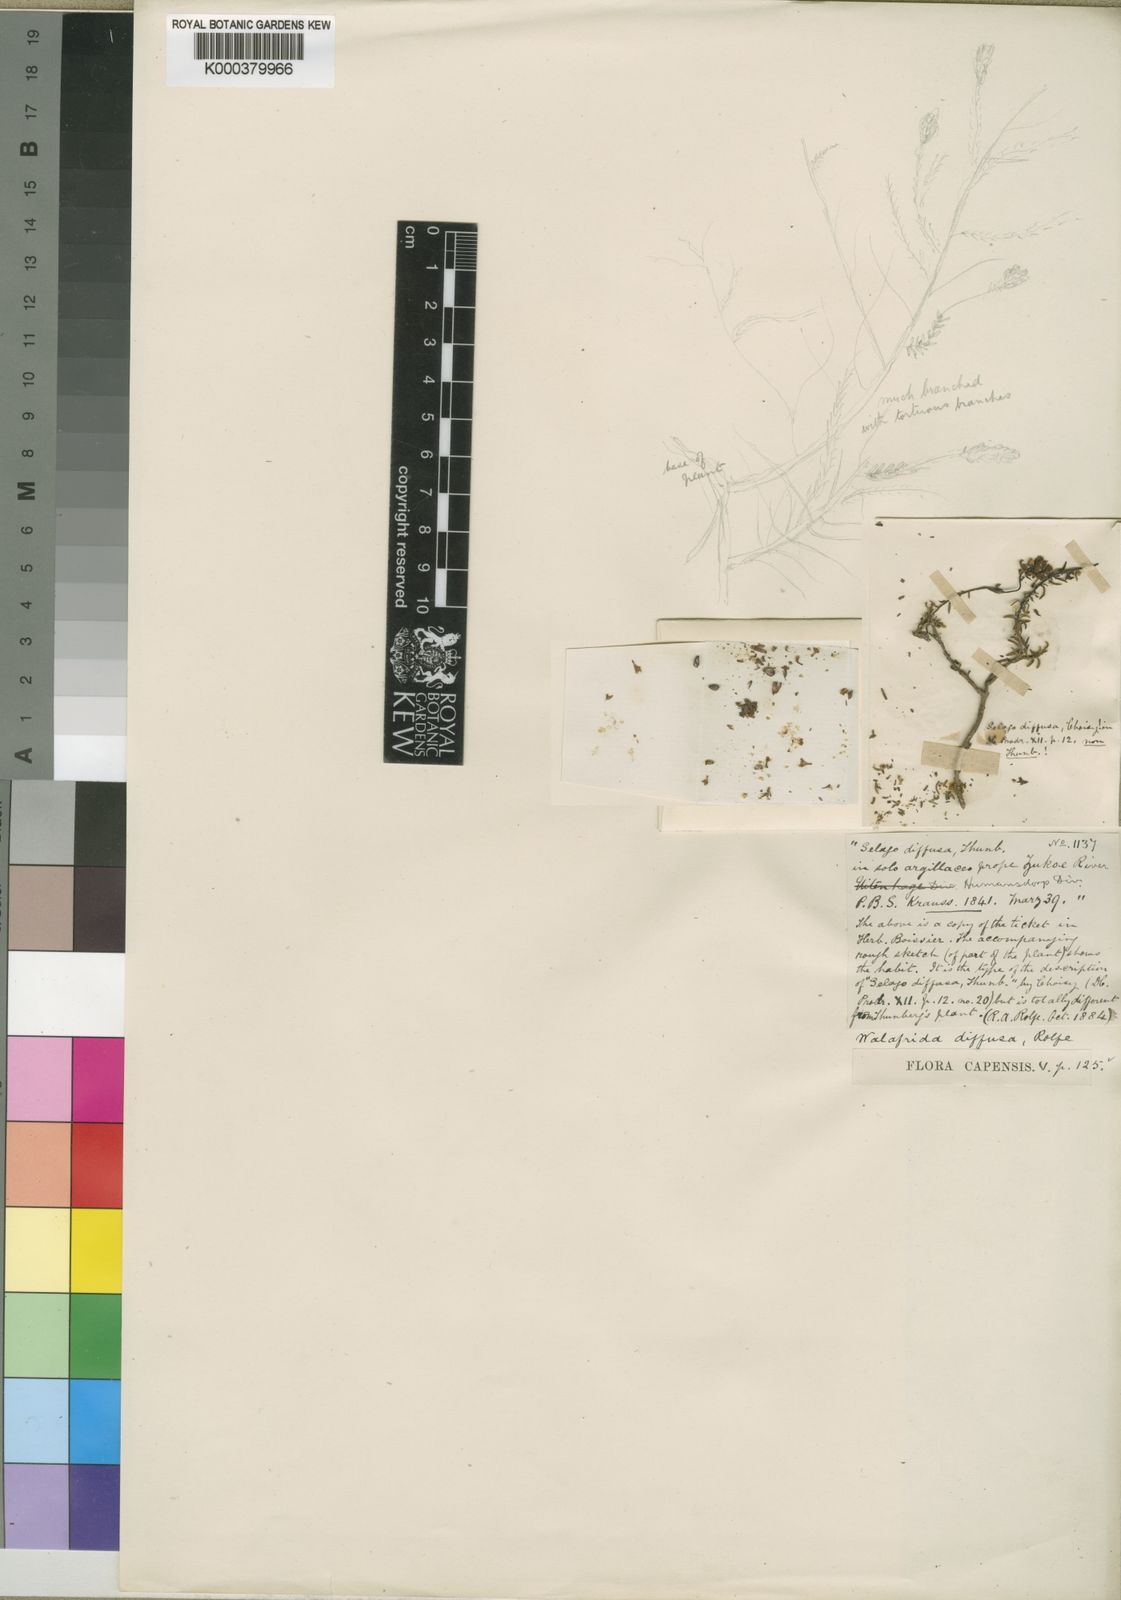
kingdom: Plantae
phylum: Tracheophyta
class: Magnoliopsida
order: Lamiales
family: Scrophulariaceae
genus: Selago
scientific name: Selago diffusa
